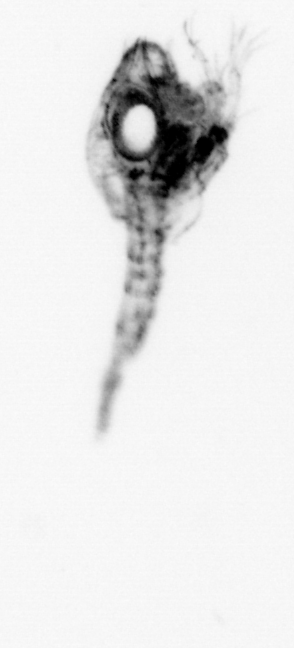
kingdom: Animalia
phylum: Arthropoda
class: Malacostraca
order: Decapoda
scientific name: Decapoda
